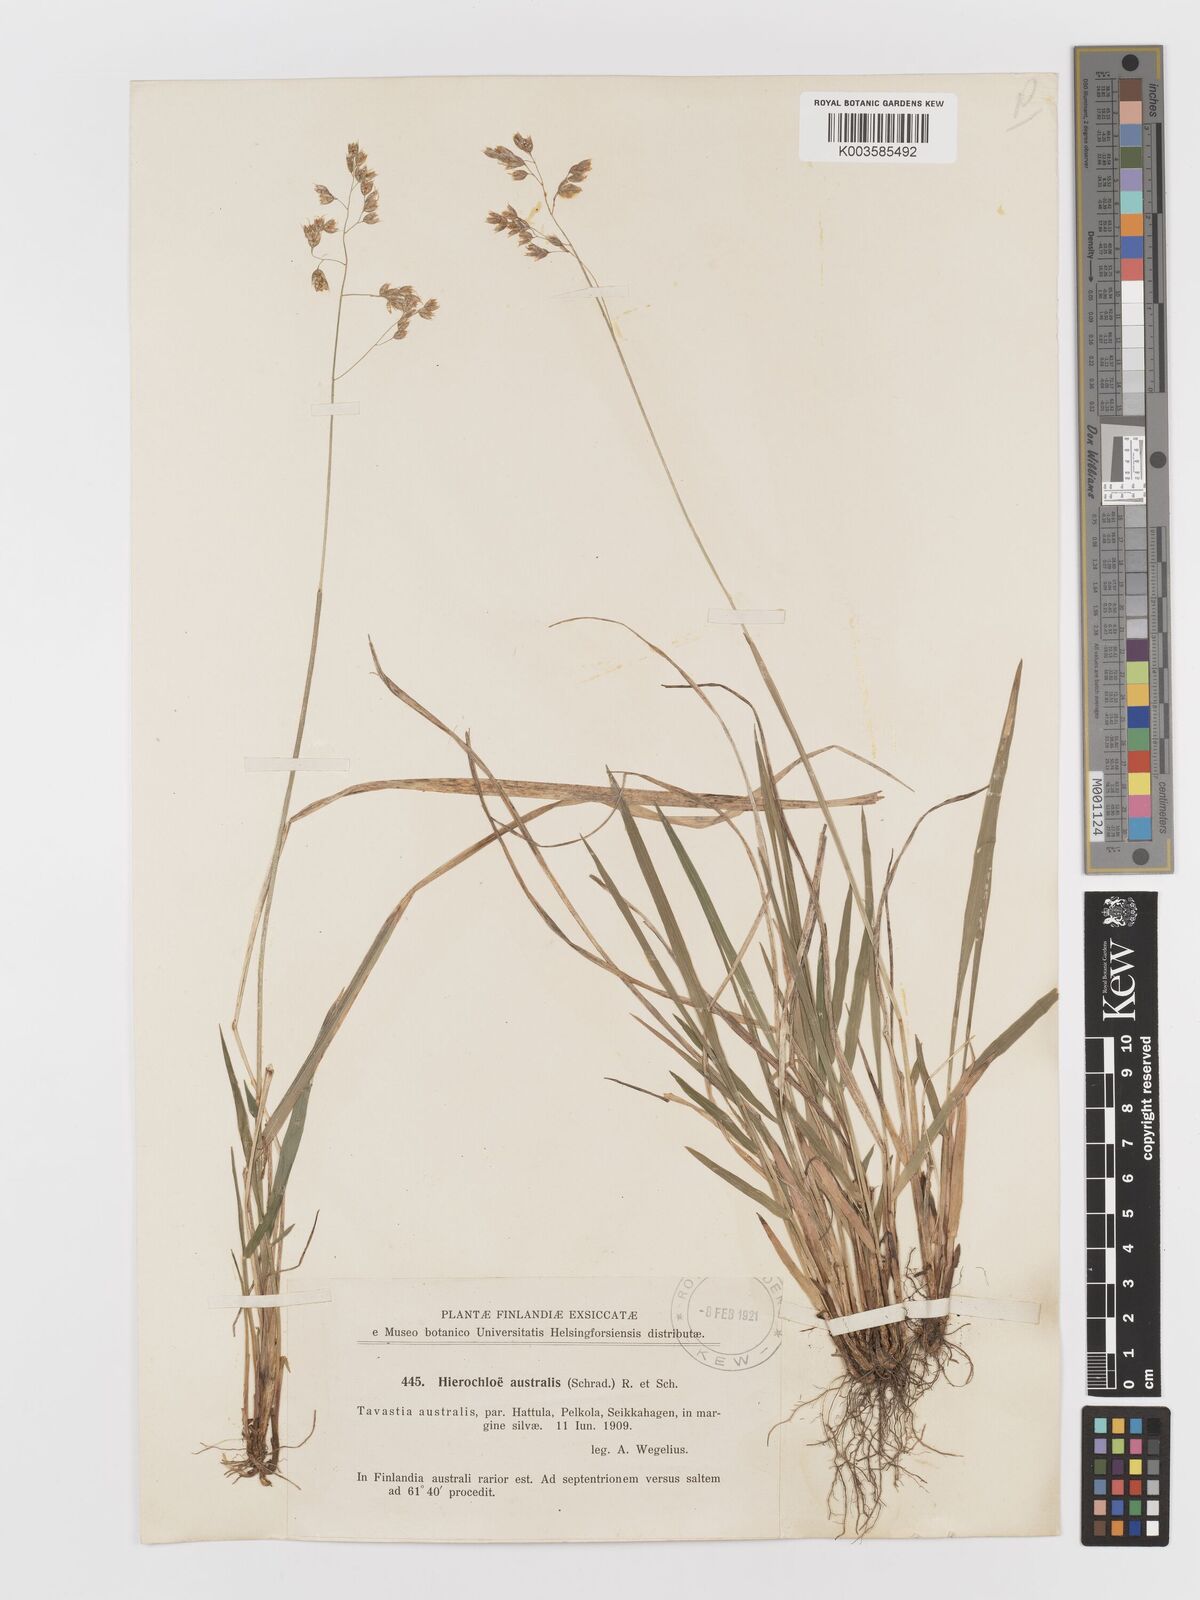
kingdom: Plantae
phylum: Tracheophyta
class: Liliopsida
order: Poales
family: Poaceae
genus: Anthoxanthum
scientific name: Anthoxanthum australe
